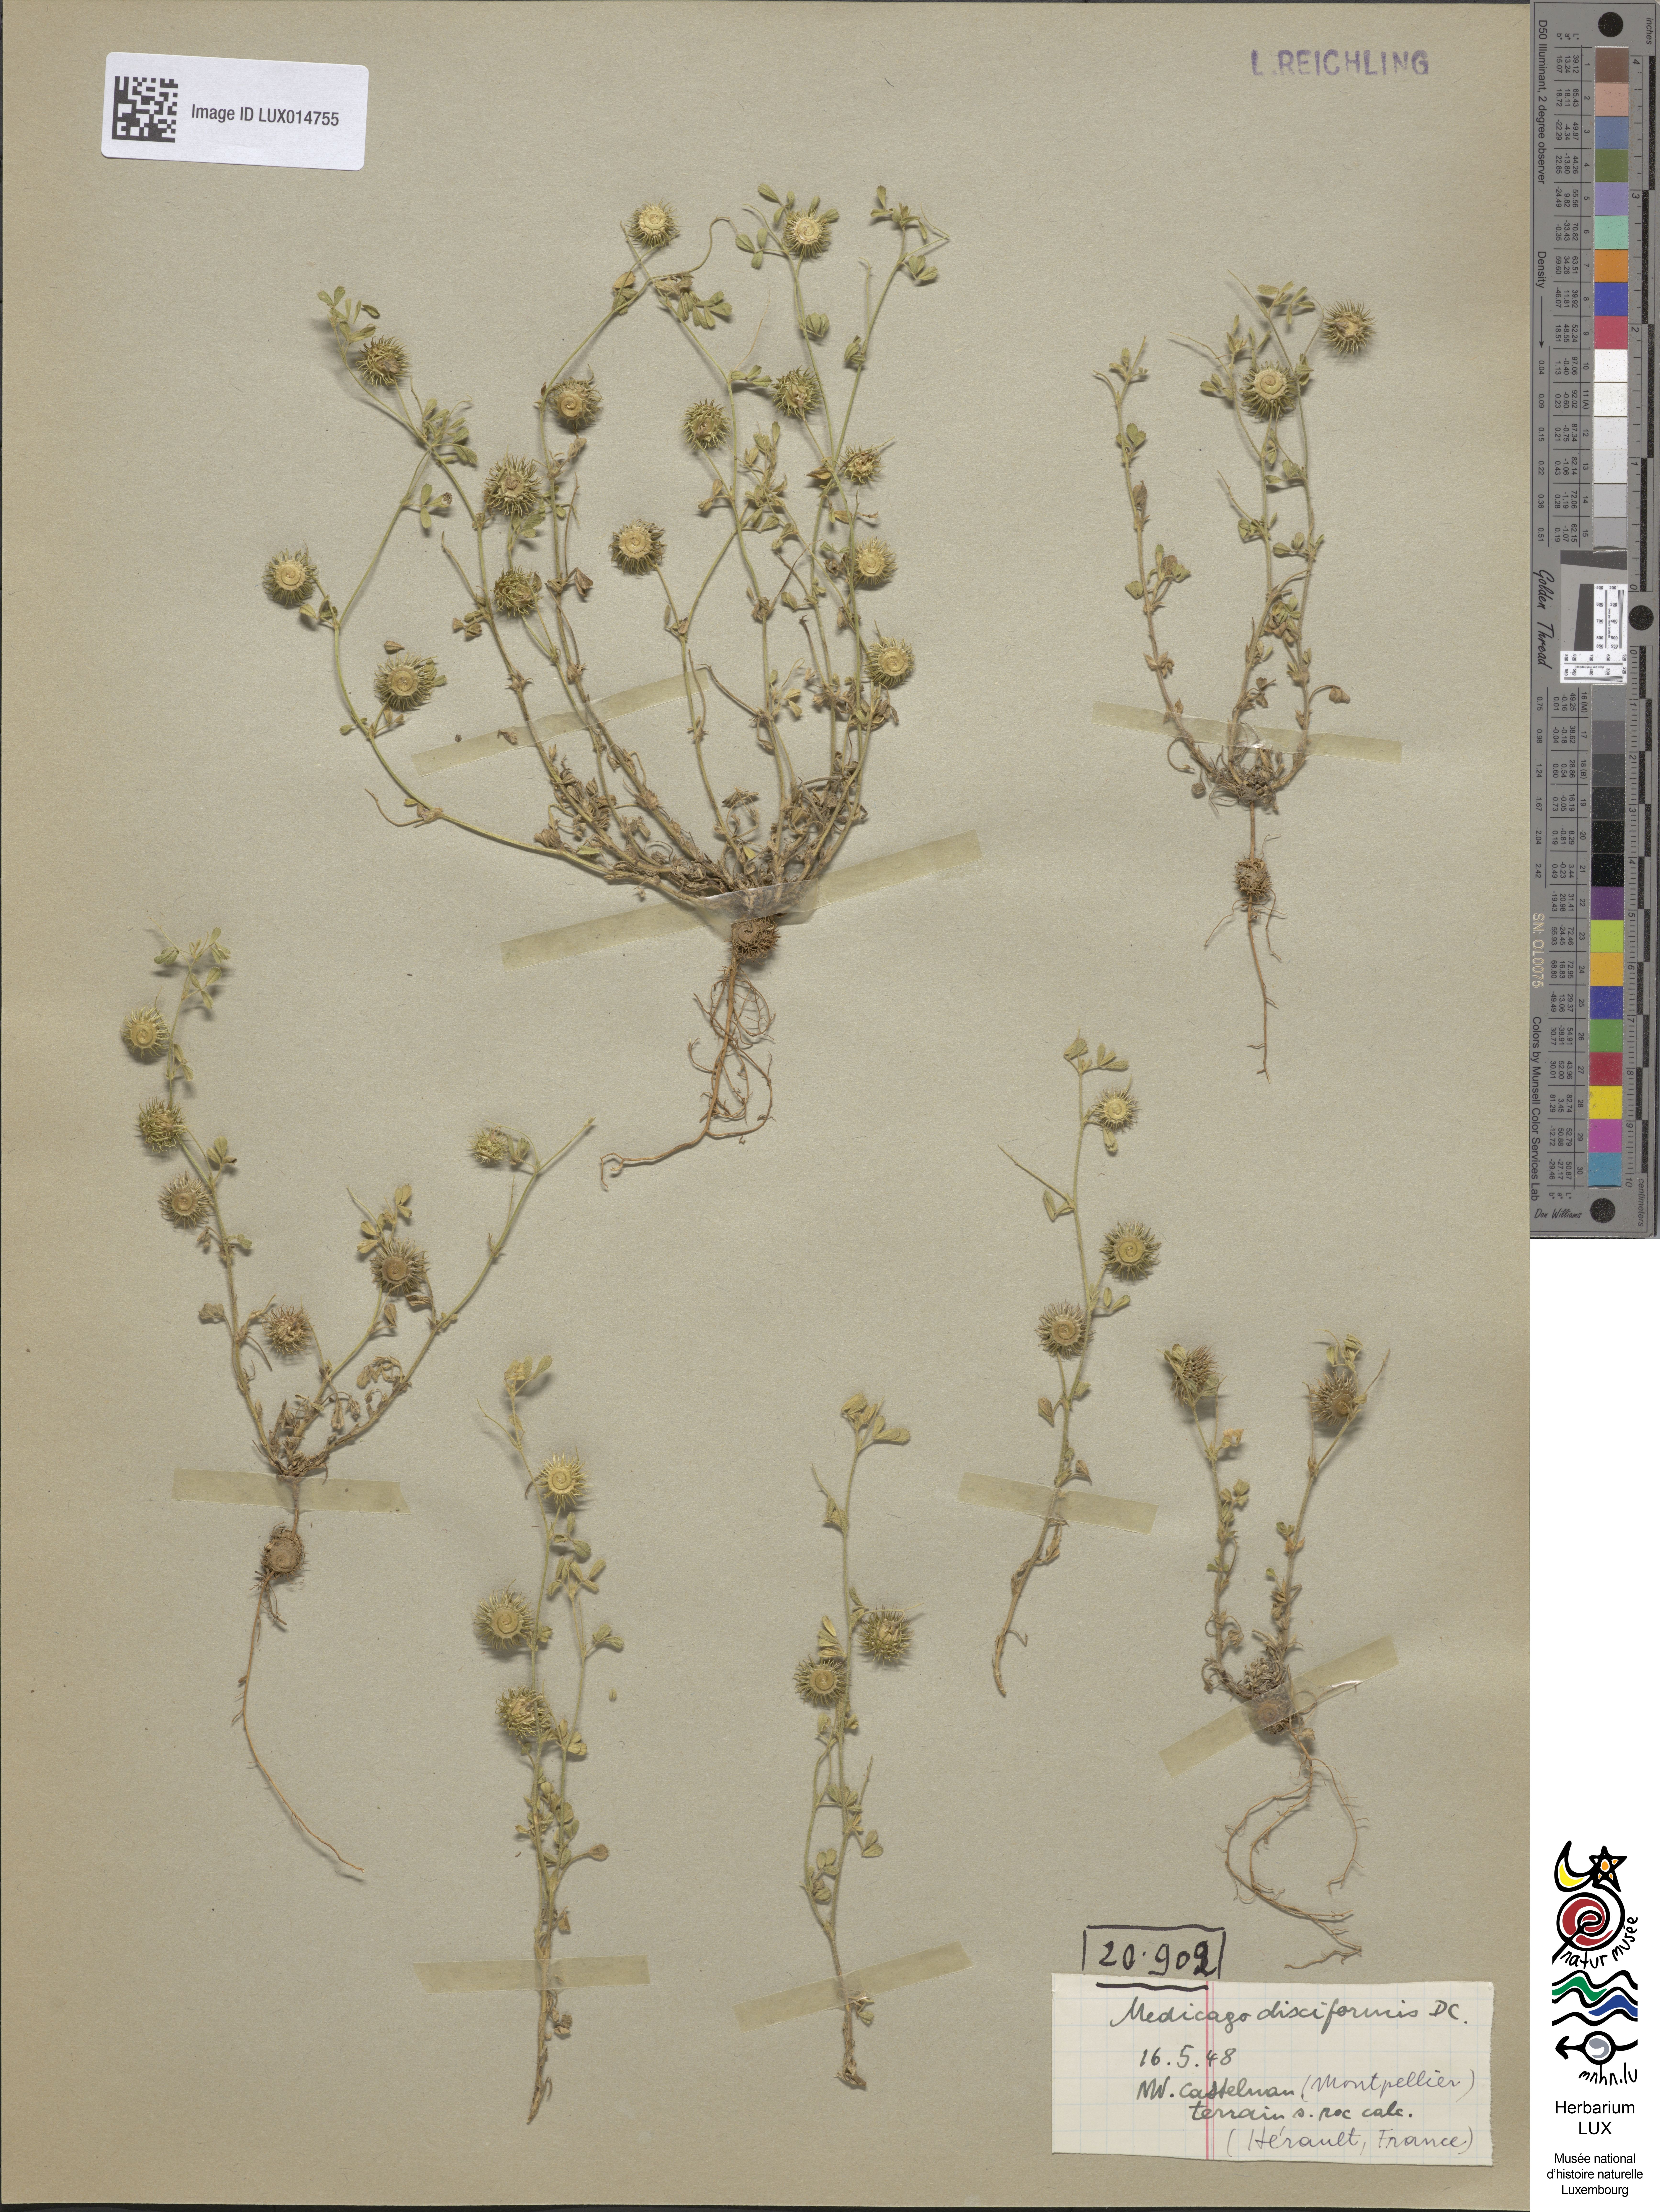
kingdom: Plantae
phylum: Tracheophyta
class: Magnoliopsida
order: Fabales
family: Fabaceae
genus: Medicago
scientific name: Medicago disciformis
